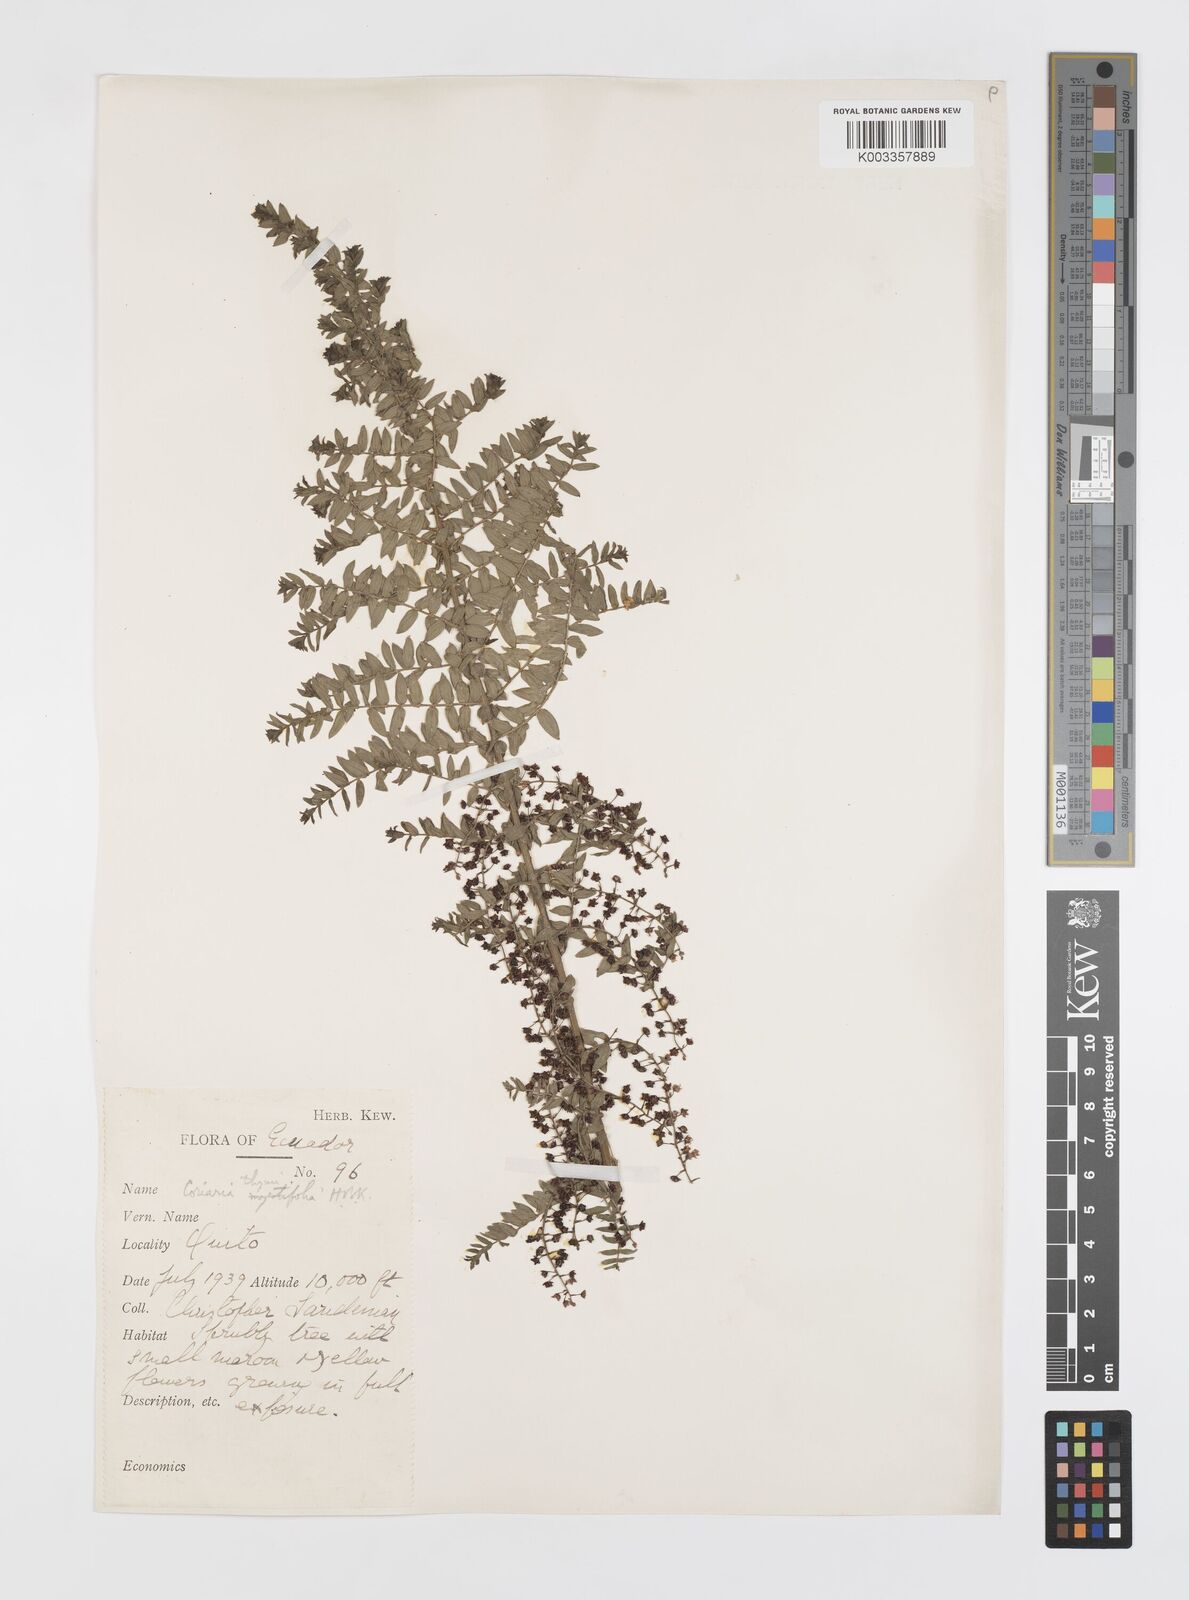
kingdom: Plantae
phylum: Tracheophyta
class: Magnoliopsida
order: Cucurbitales
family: Coriariaceae
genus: Coriaria
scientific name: Coriaria microphylla
